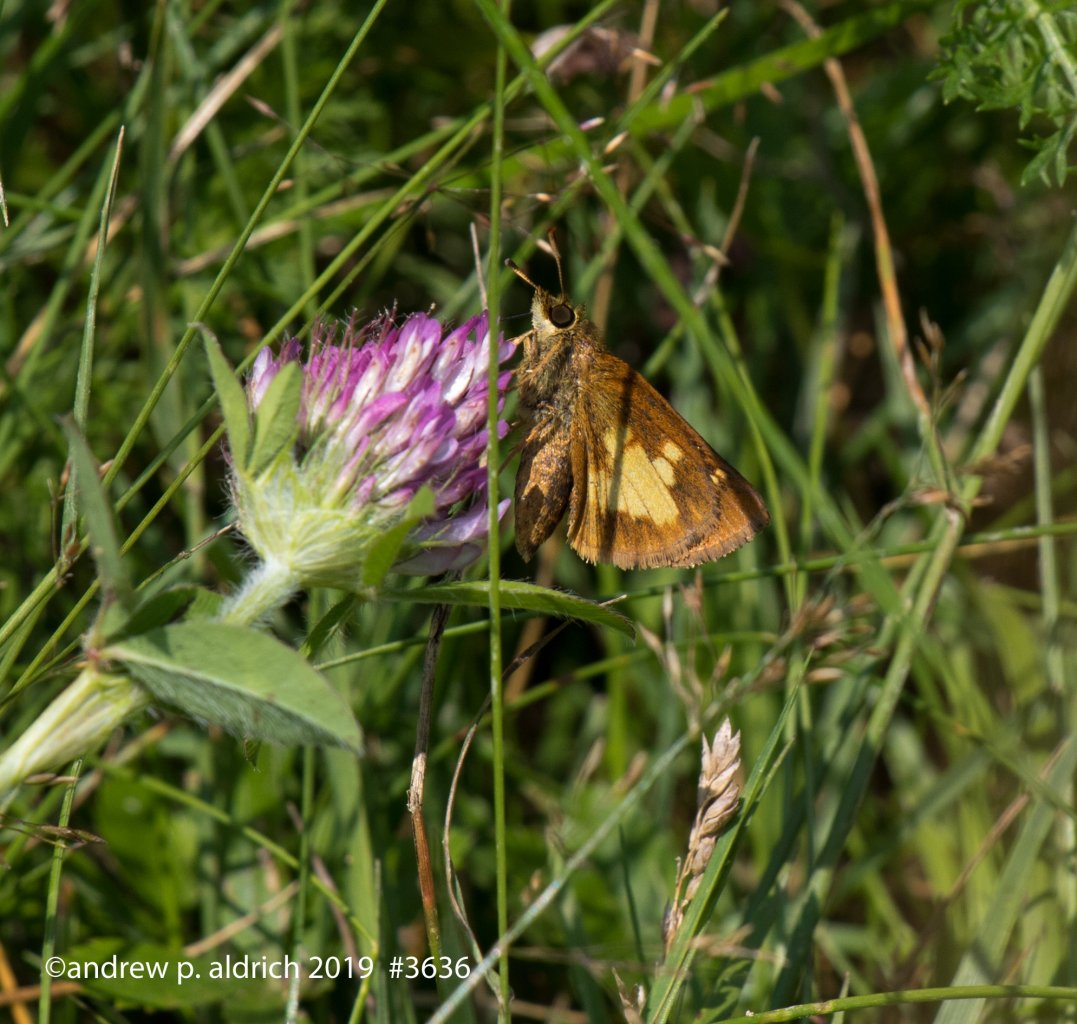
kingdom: Animalia
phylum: Arthropoda
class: Insecta
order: Lepidoptera
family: Hesperiidae
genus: Polites
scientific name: Polites coras
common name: Peck's Skipper
